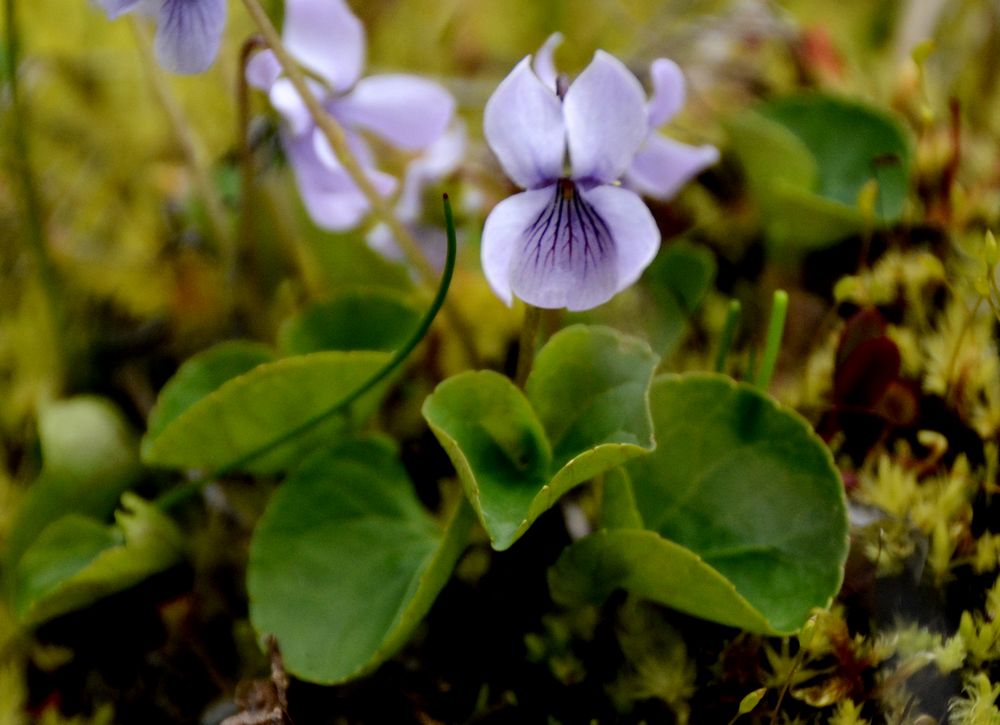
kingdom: Plantae
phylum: Tracheophyta
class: Magnoliopsida
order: Malpighiales
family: Violaceae
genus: Viola
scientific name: Viola palustris
